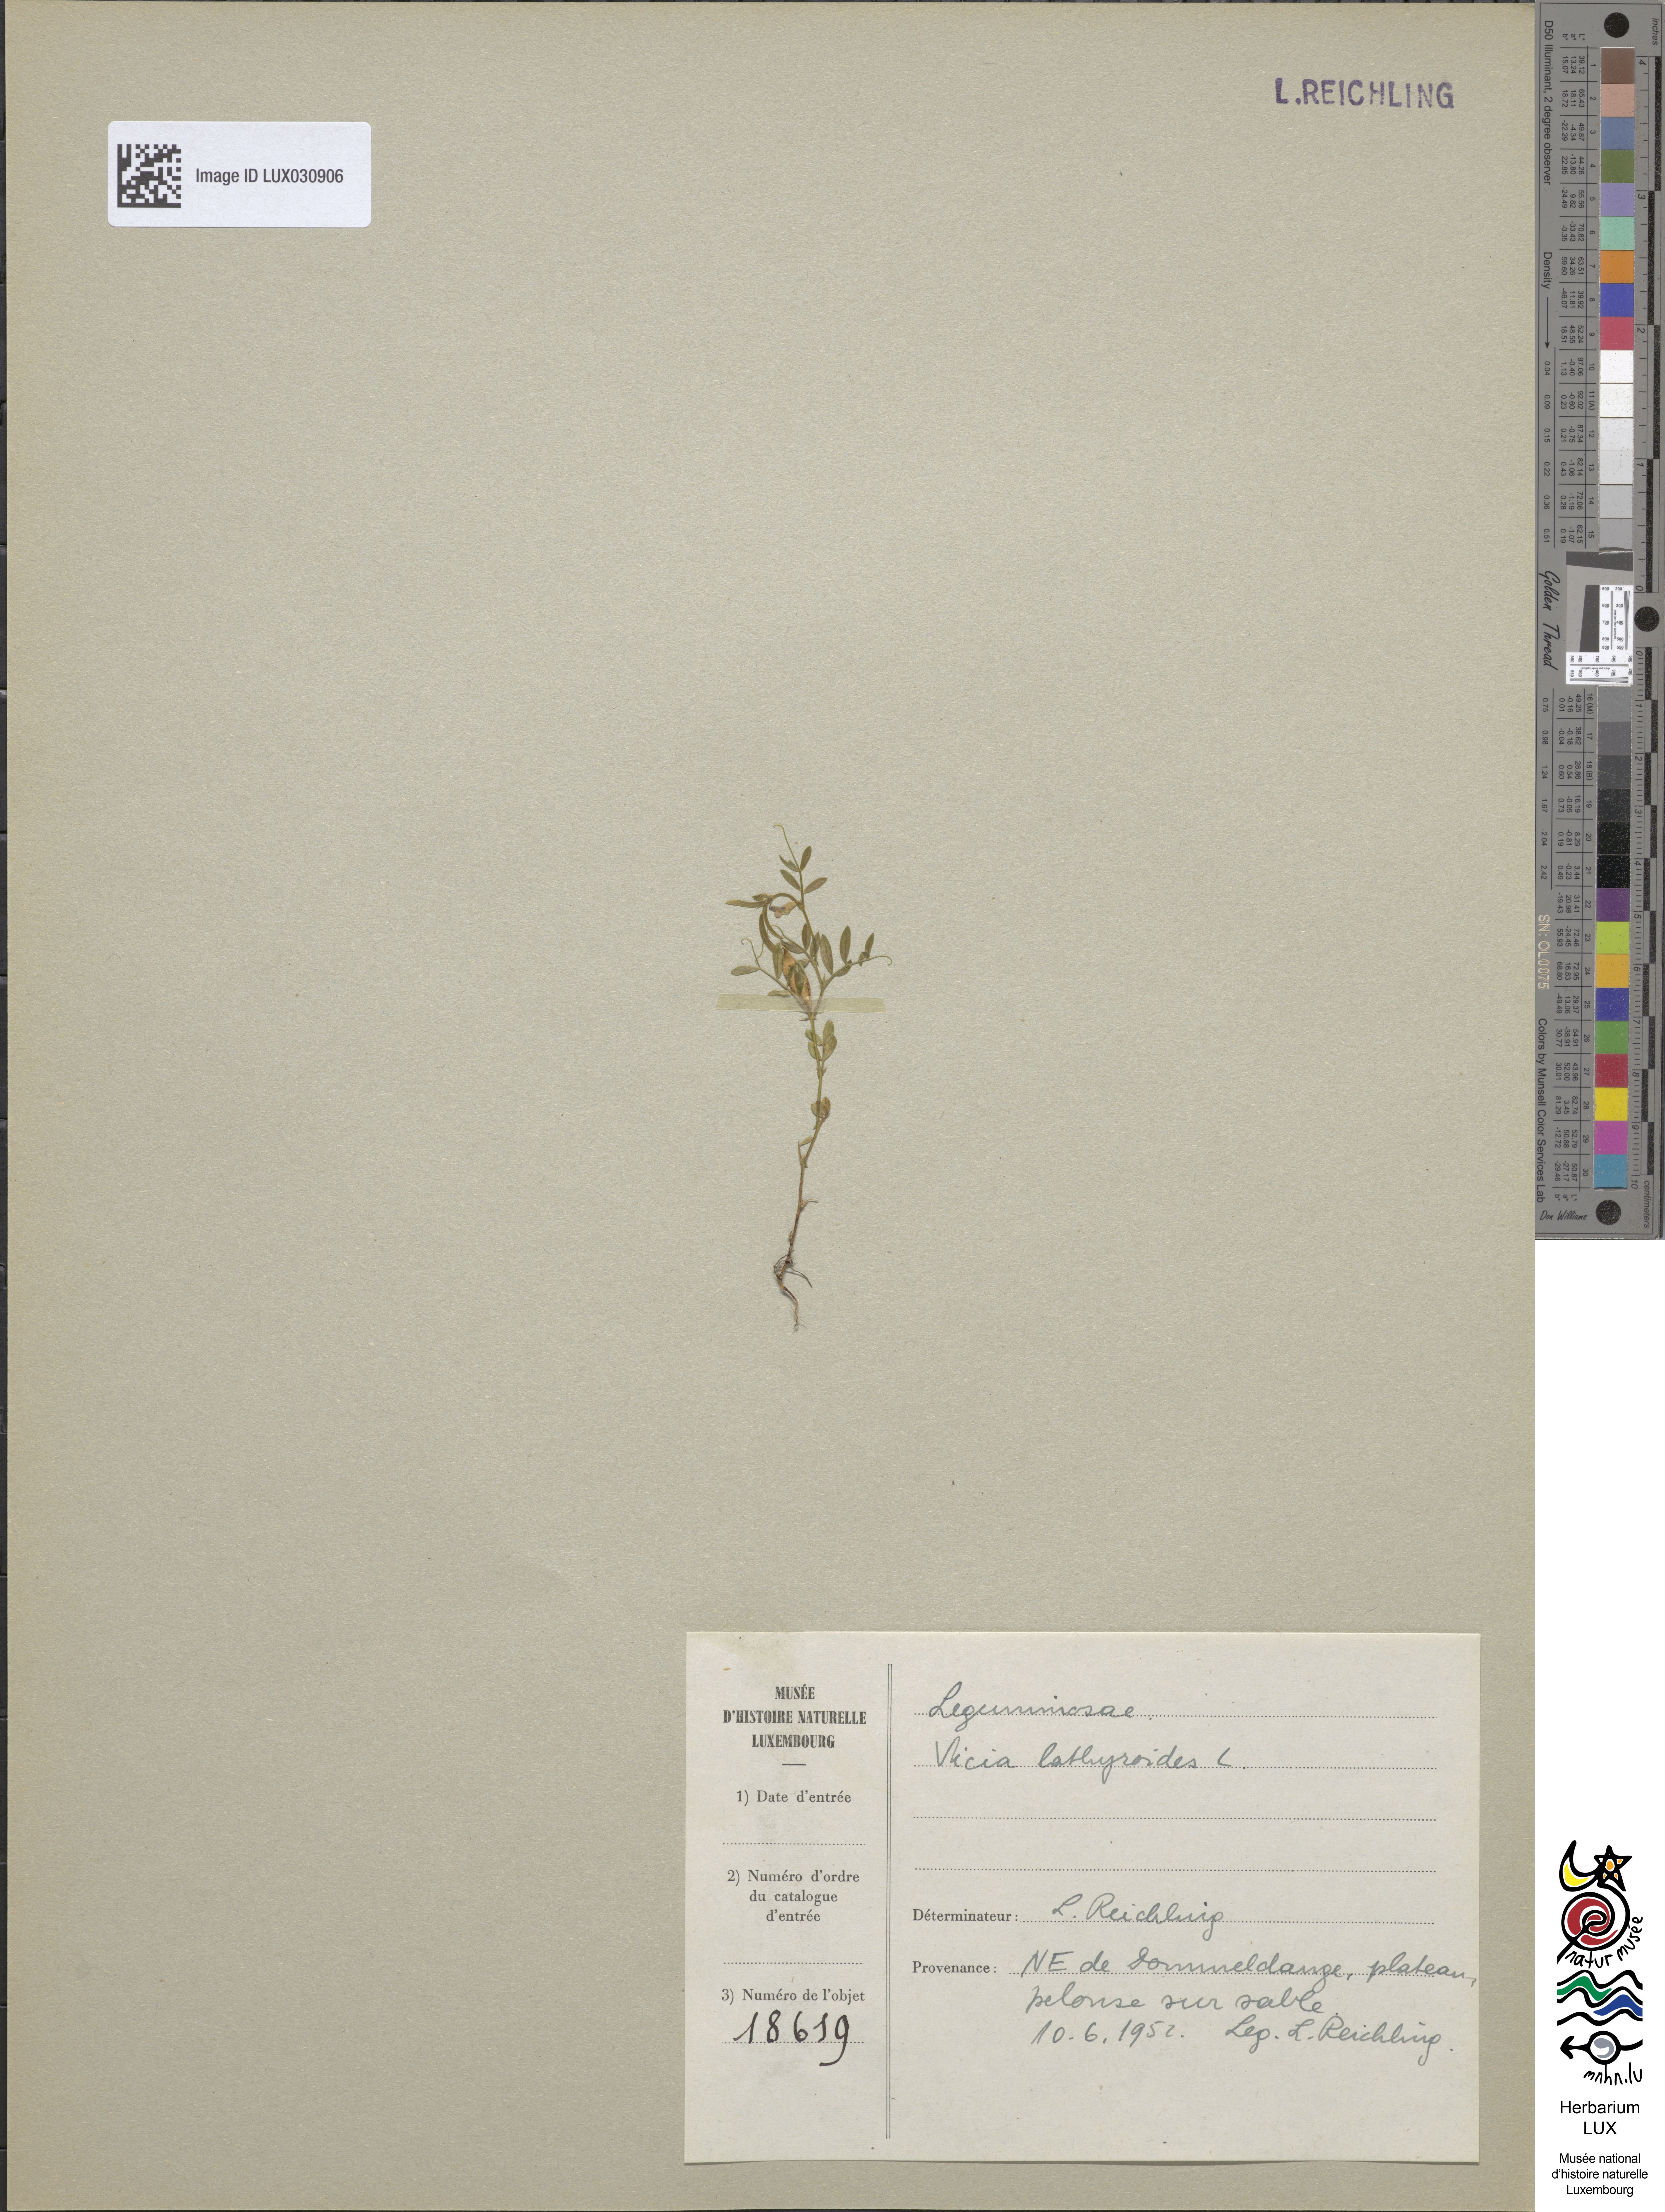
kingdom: Plantae
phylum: Tracheophyta
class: Magnoliopsida
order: Fabales
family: Fabaceae
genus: Vicia
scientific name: Vicia lathyroides
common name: Spring vetch
